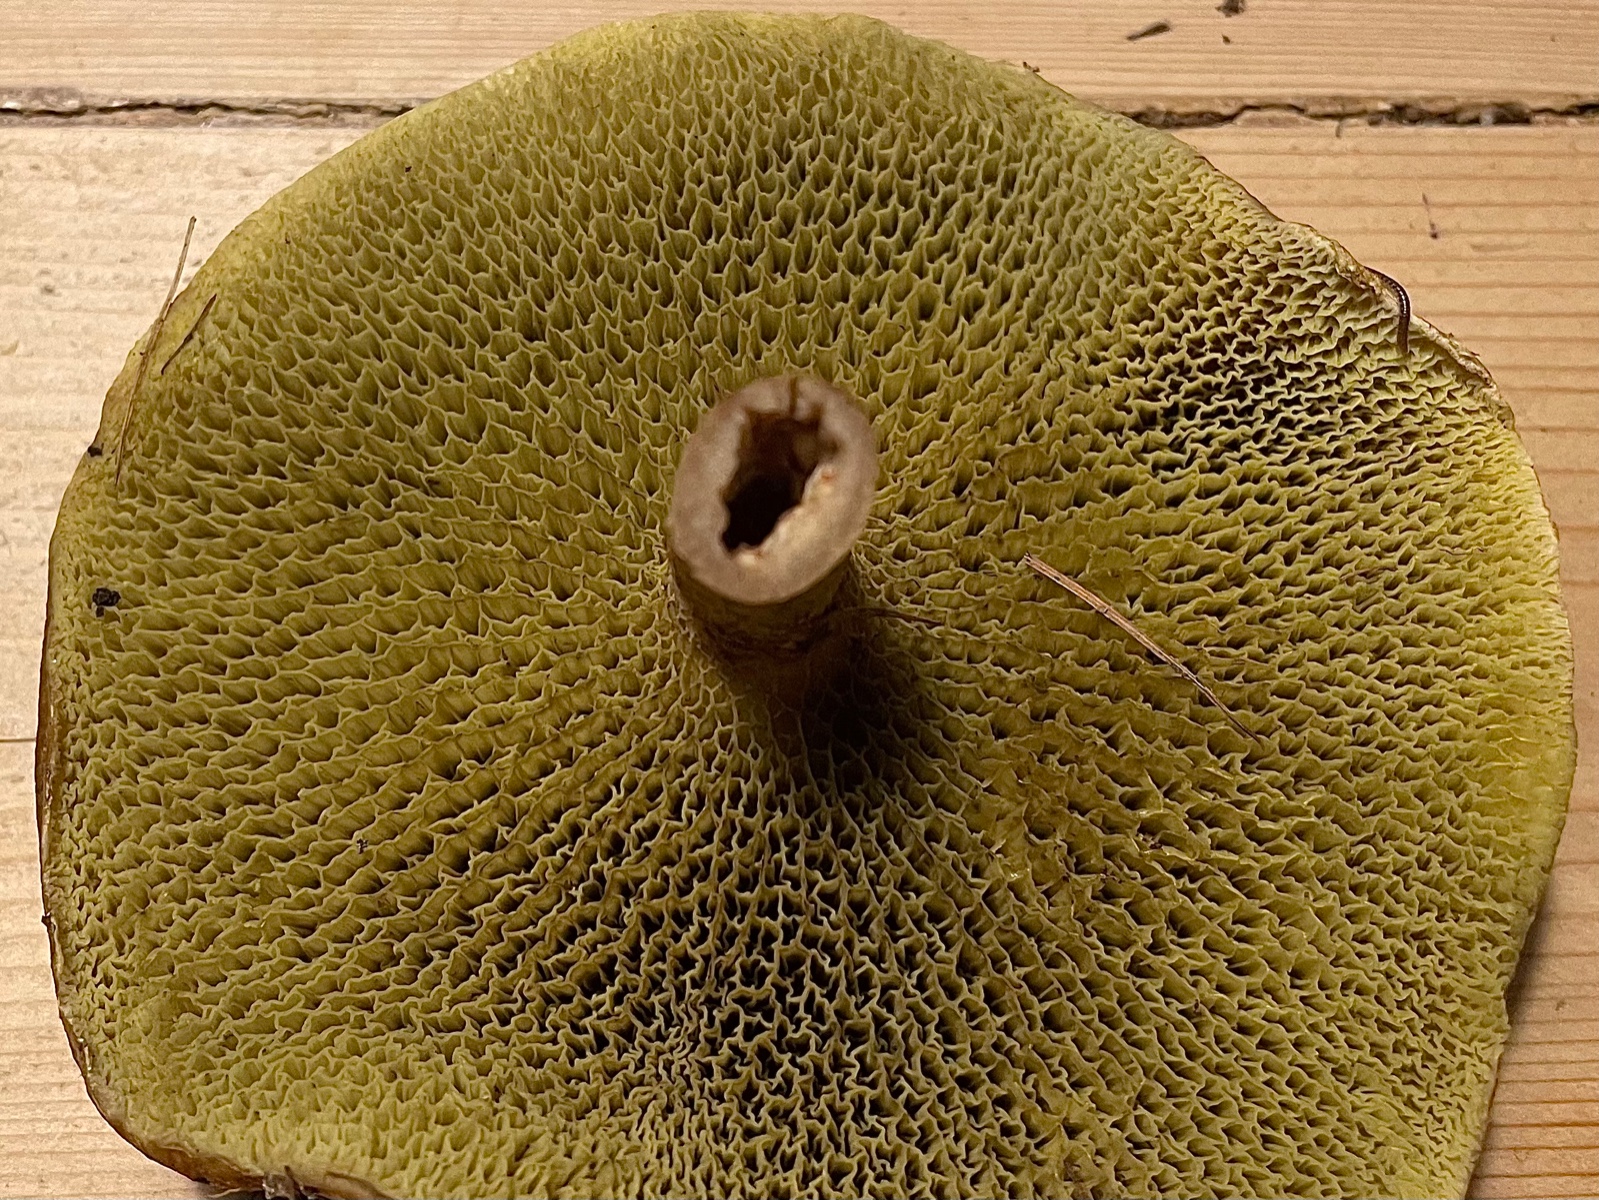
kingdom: Fungi
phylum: Basidiomycota
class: Agaricomycetes
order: Boletales
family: Suillaceae
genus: Suillus
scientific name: Suillus cavipes
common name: hulstokket slimrørhat
